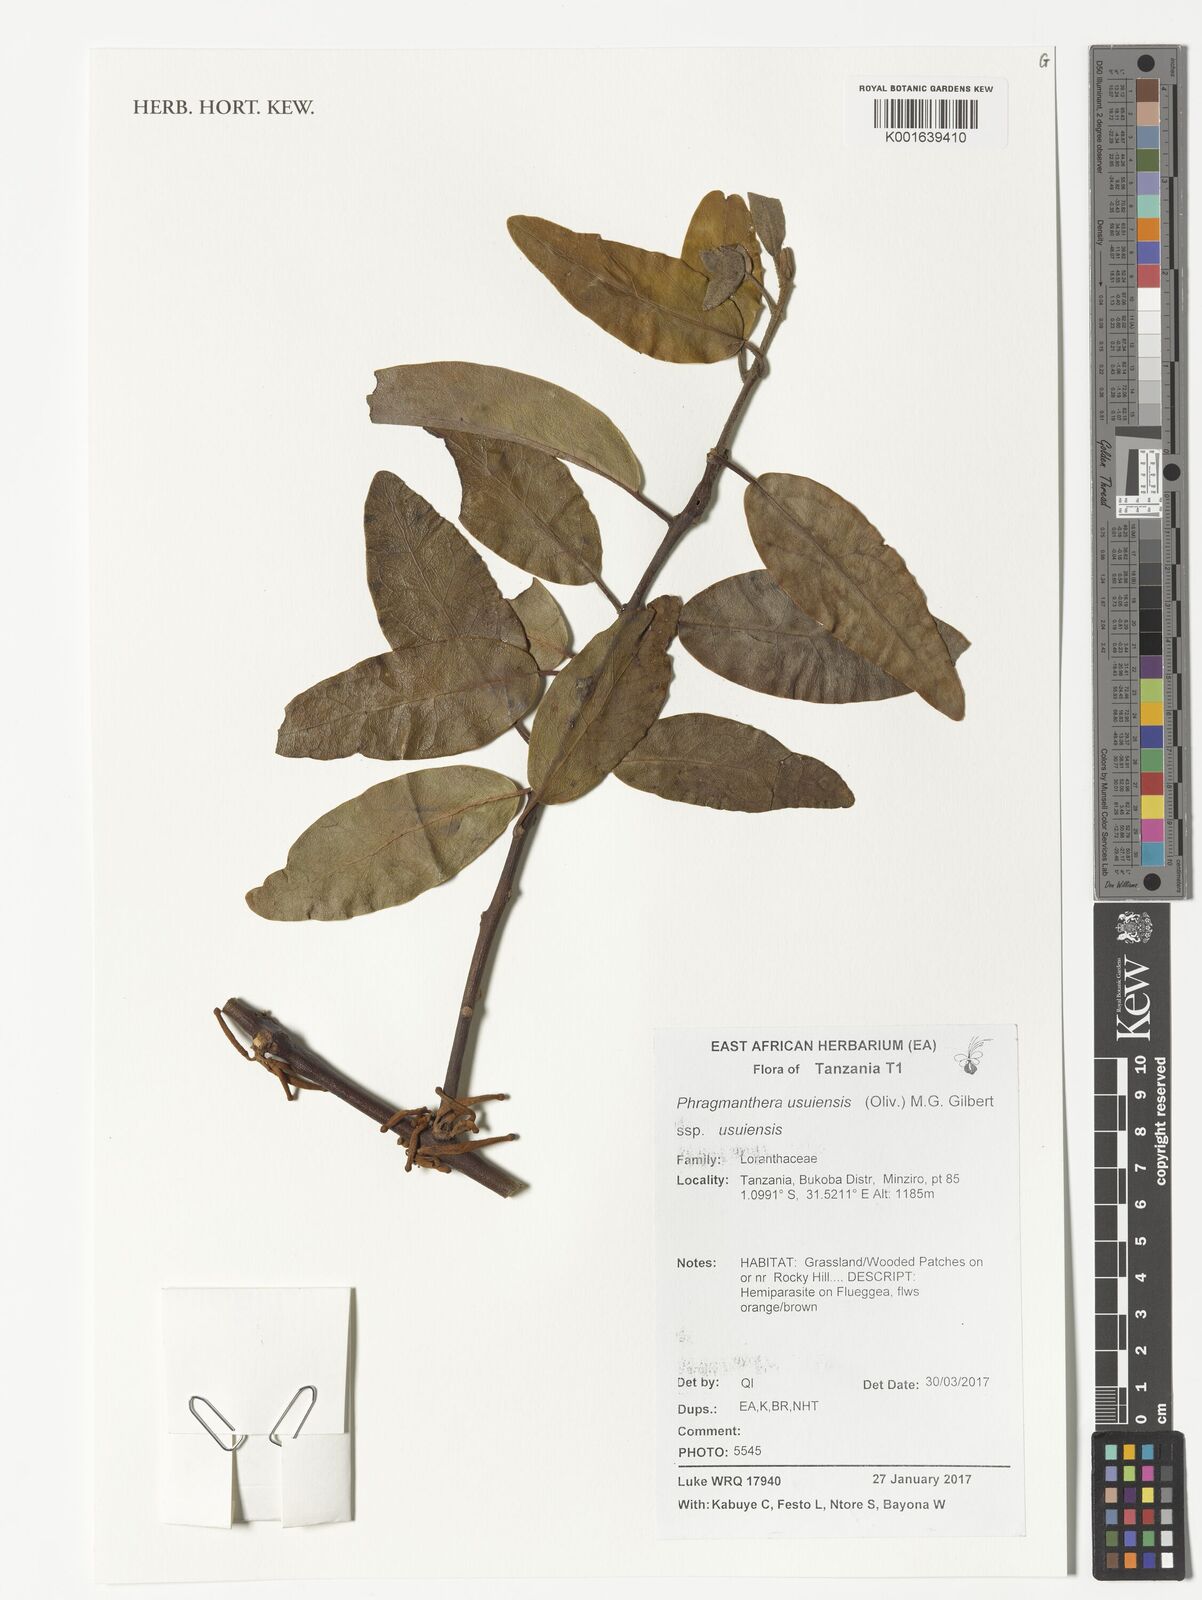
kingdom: Plantae
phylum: Tracheophyta
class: Magnoliopsida
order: Santalales
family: Loranthaceae
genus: Phragmanthera
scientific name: Phragmanthera usuiensis
